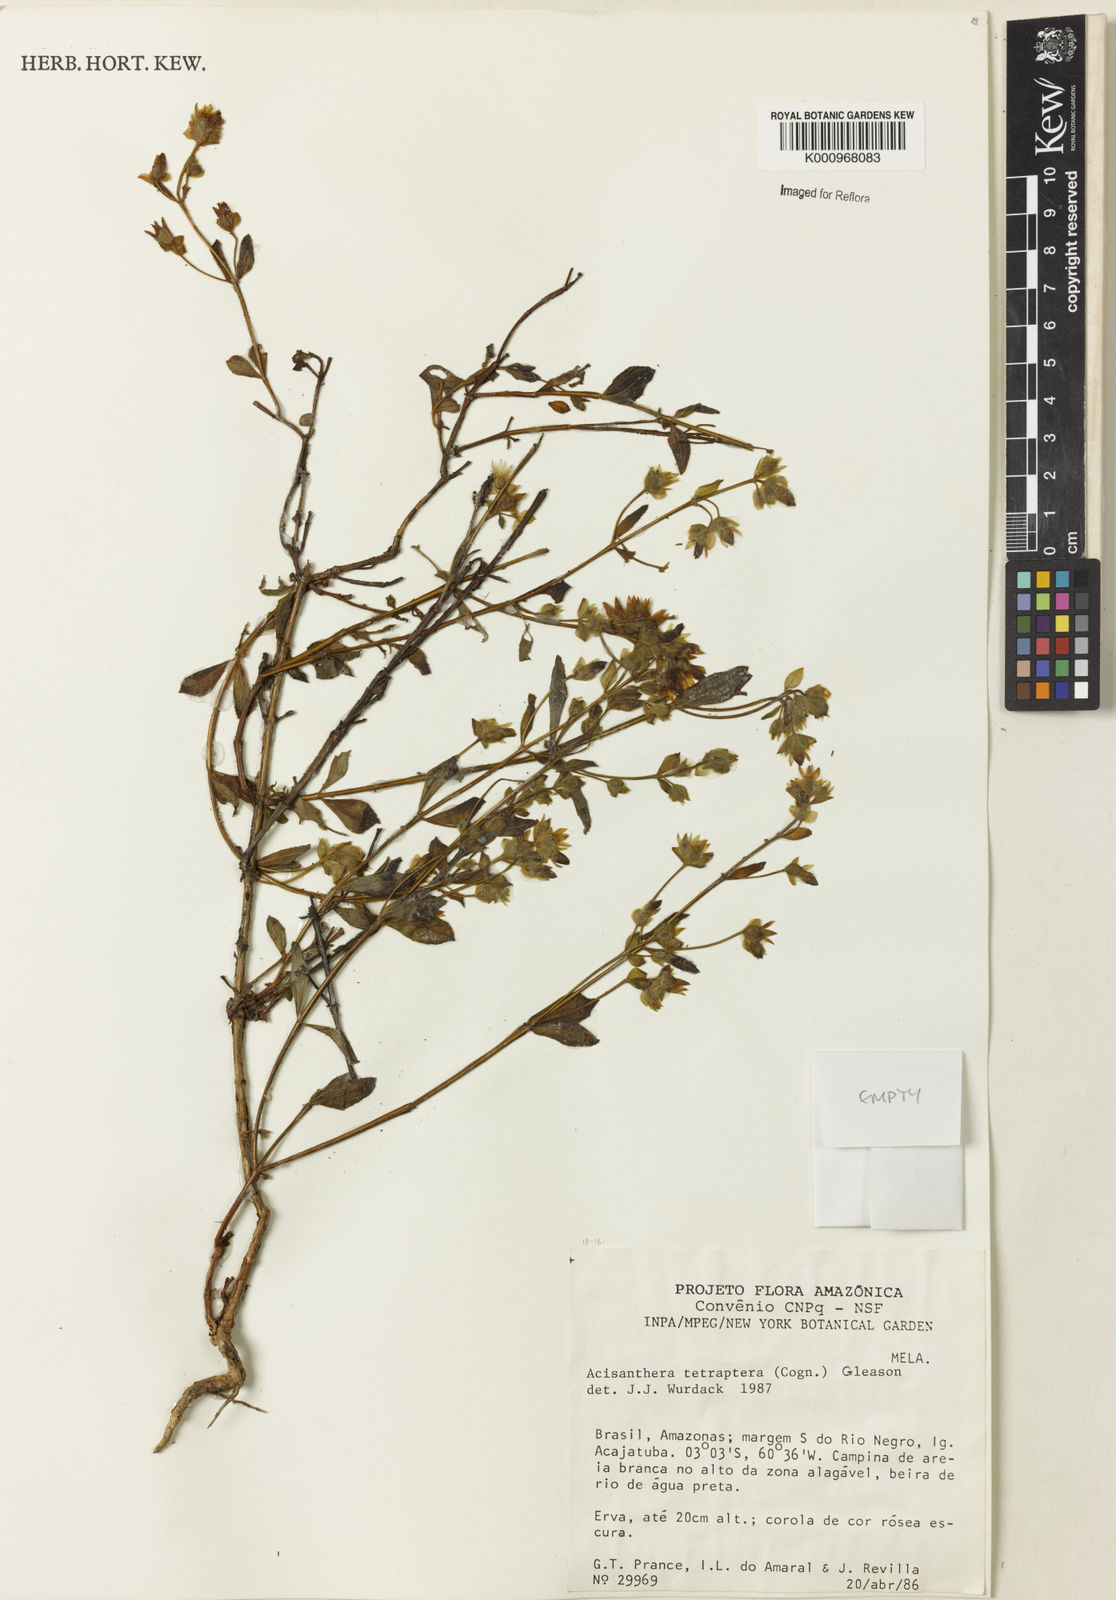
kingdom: Plantae
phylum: Tracheophyta
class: Magnoliopsida
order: Myrtales
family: Melastomataceae
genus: Rostranthera
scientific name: Rostranthera tetraptera
